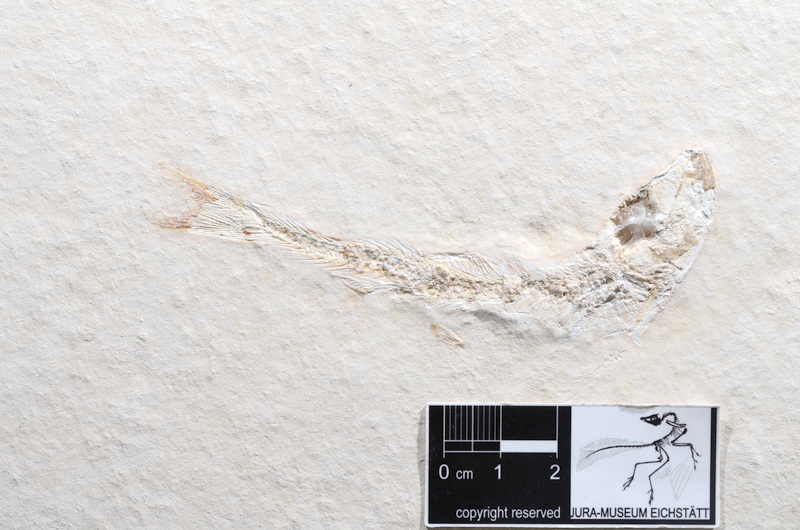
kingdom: Animalia
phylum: Chordata
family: Ascalaboidae
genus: Tharsis
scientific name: Tharsis dubius
